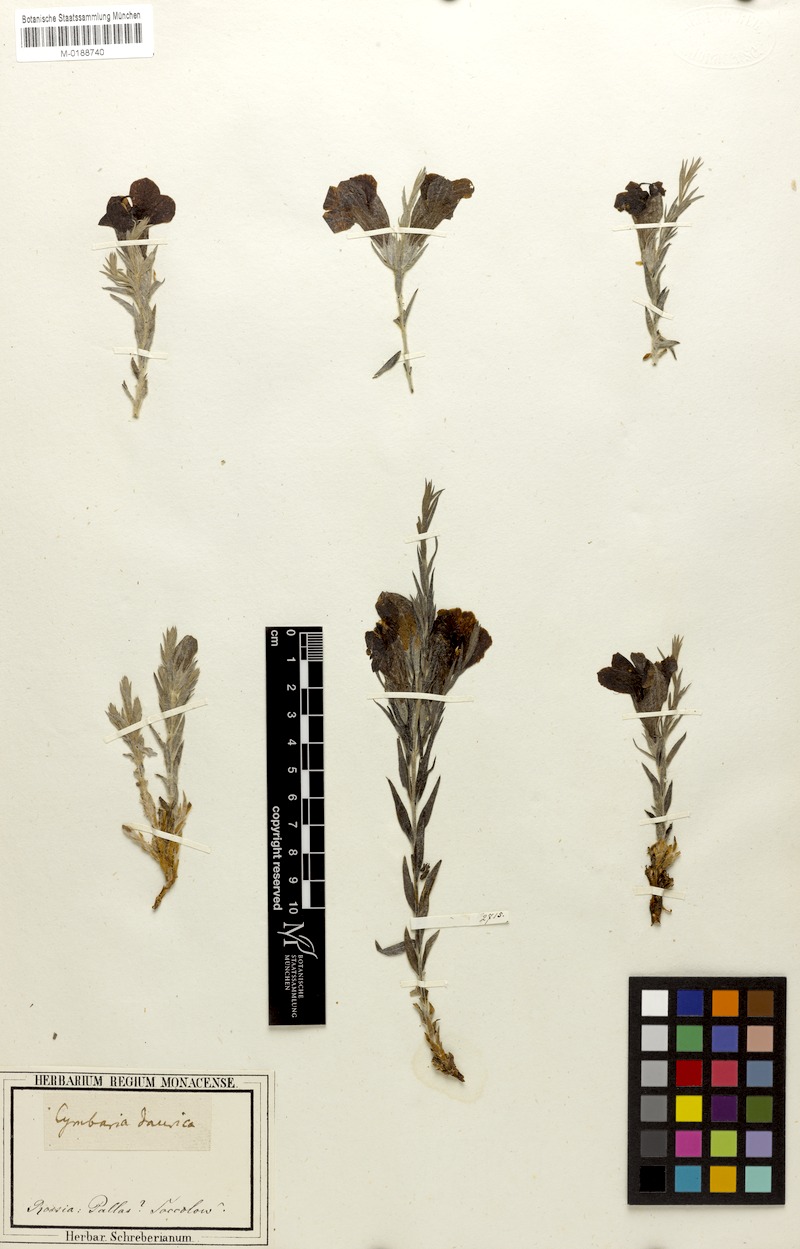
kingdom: Plantae
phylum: Tracheophyta
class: Magnoliopsida
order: Lamiales
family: Orobanchaceae
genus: Cymbaria
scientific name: Cymbaria daurica
